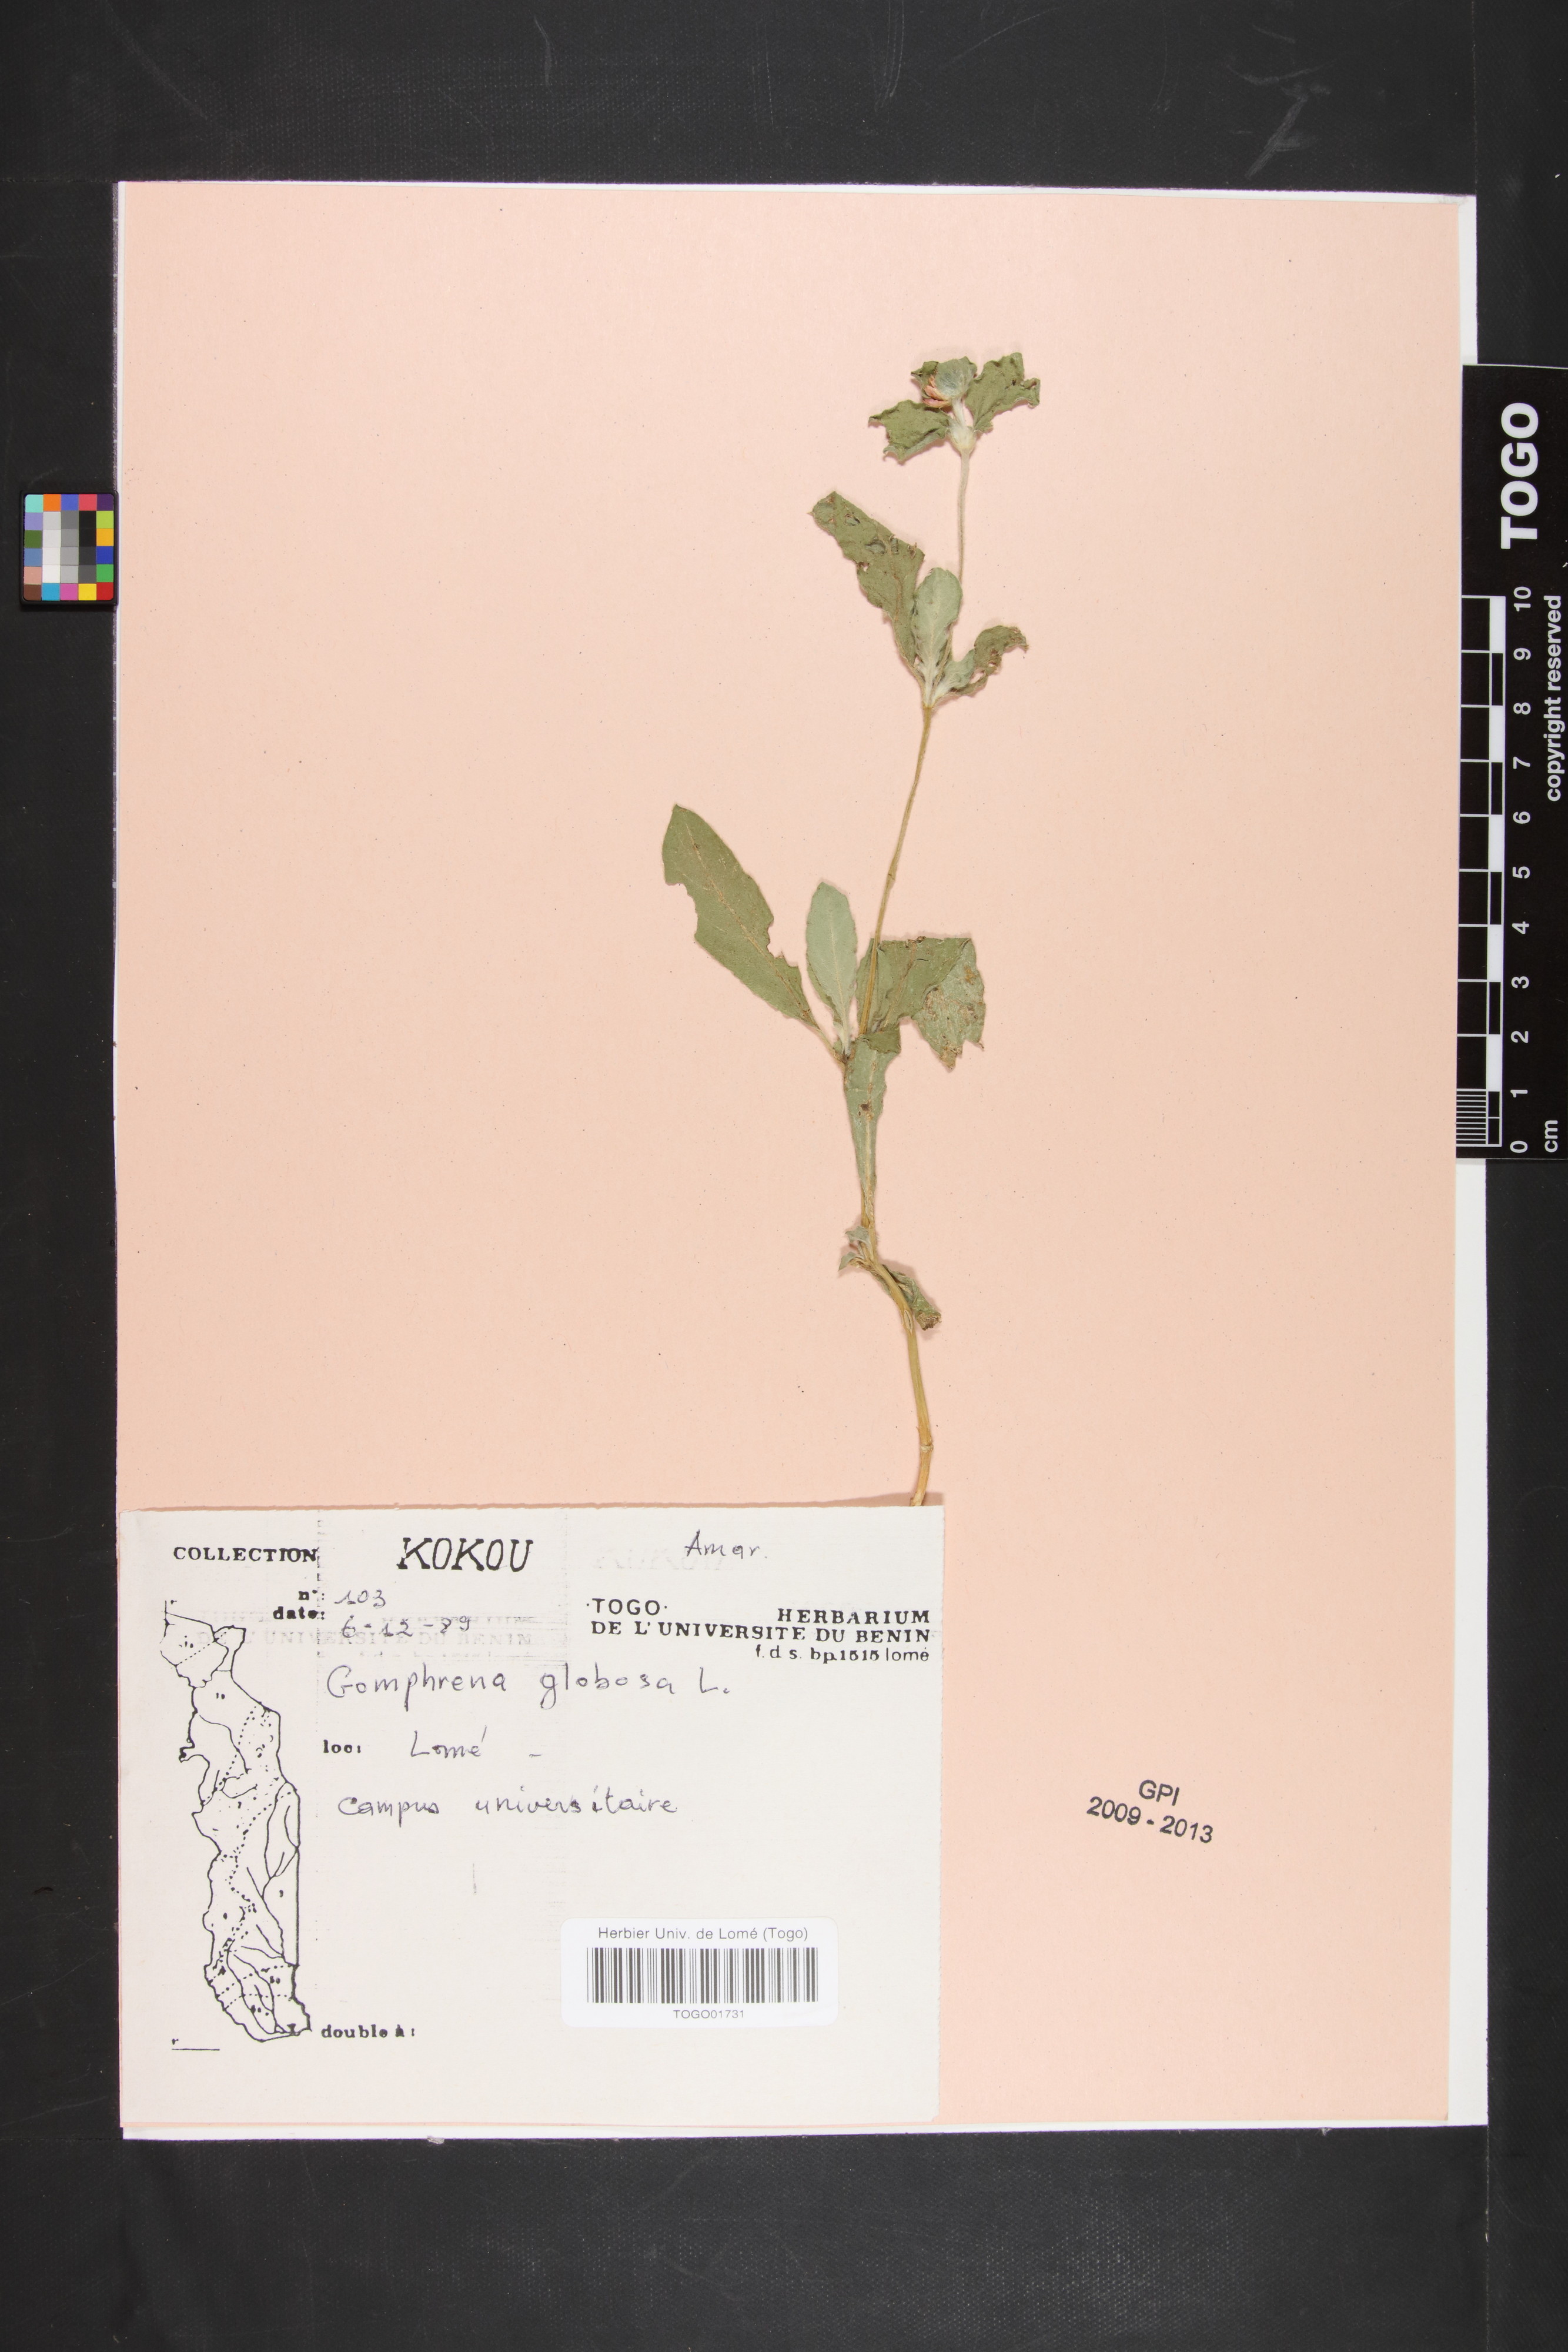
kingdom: Plantae
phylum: Tracheophyta
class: Magnoliopsida
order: Caryophyllales
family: Amaranthaceae
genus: Gomphrena
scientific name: Gomphrena globosa
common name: Common globe amaranth
